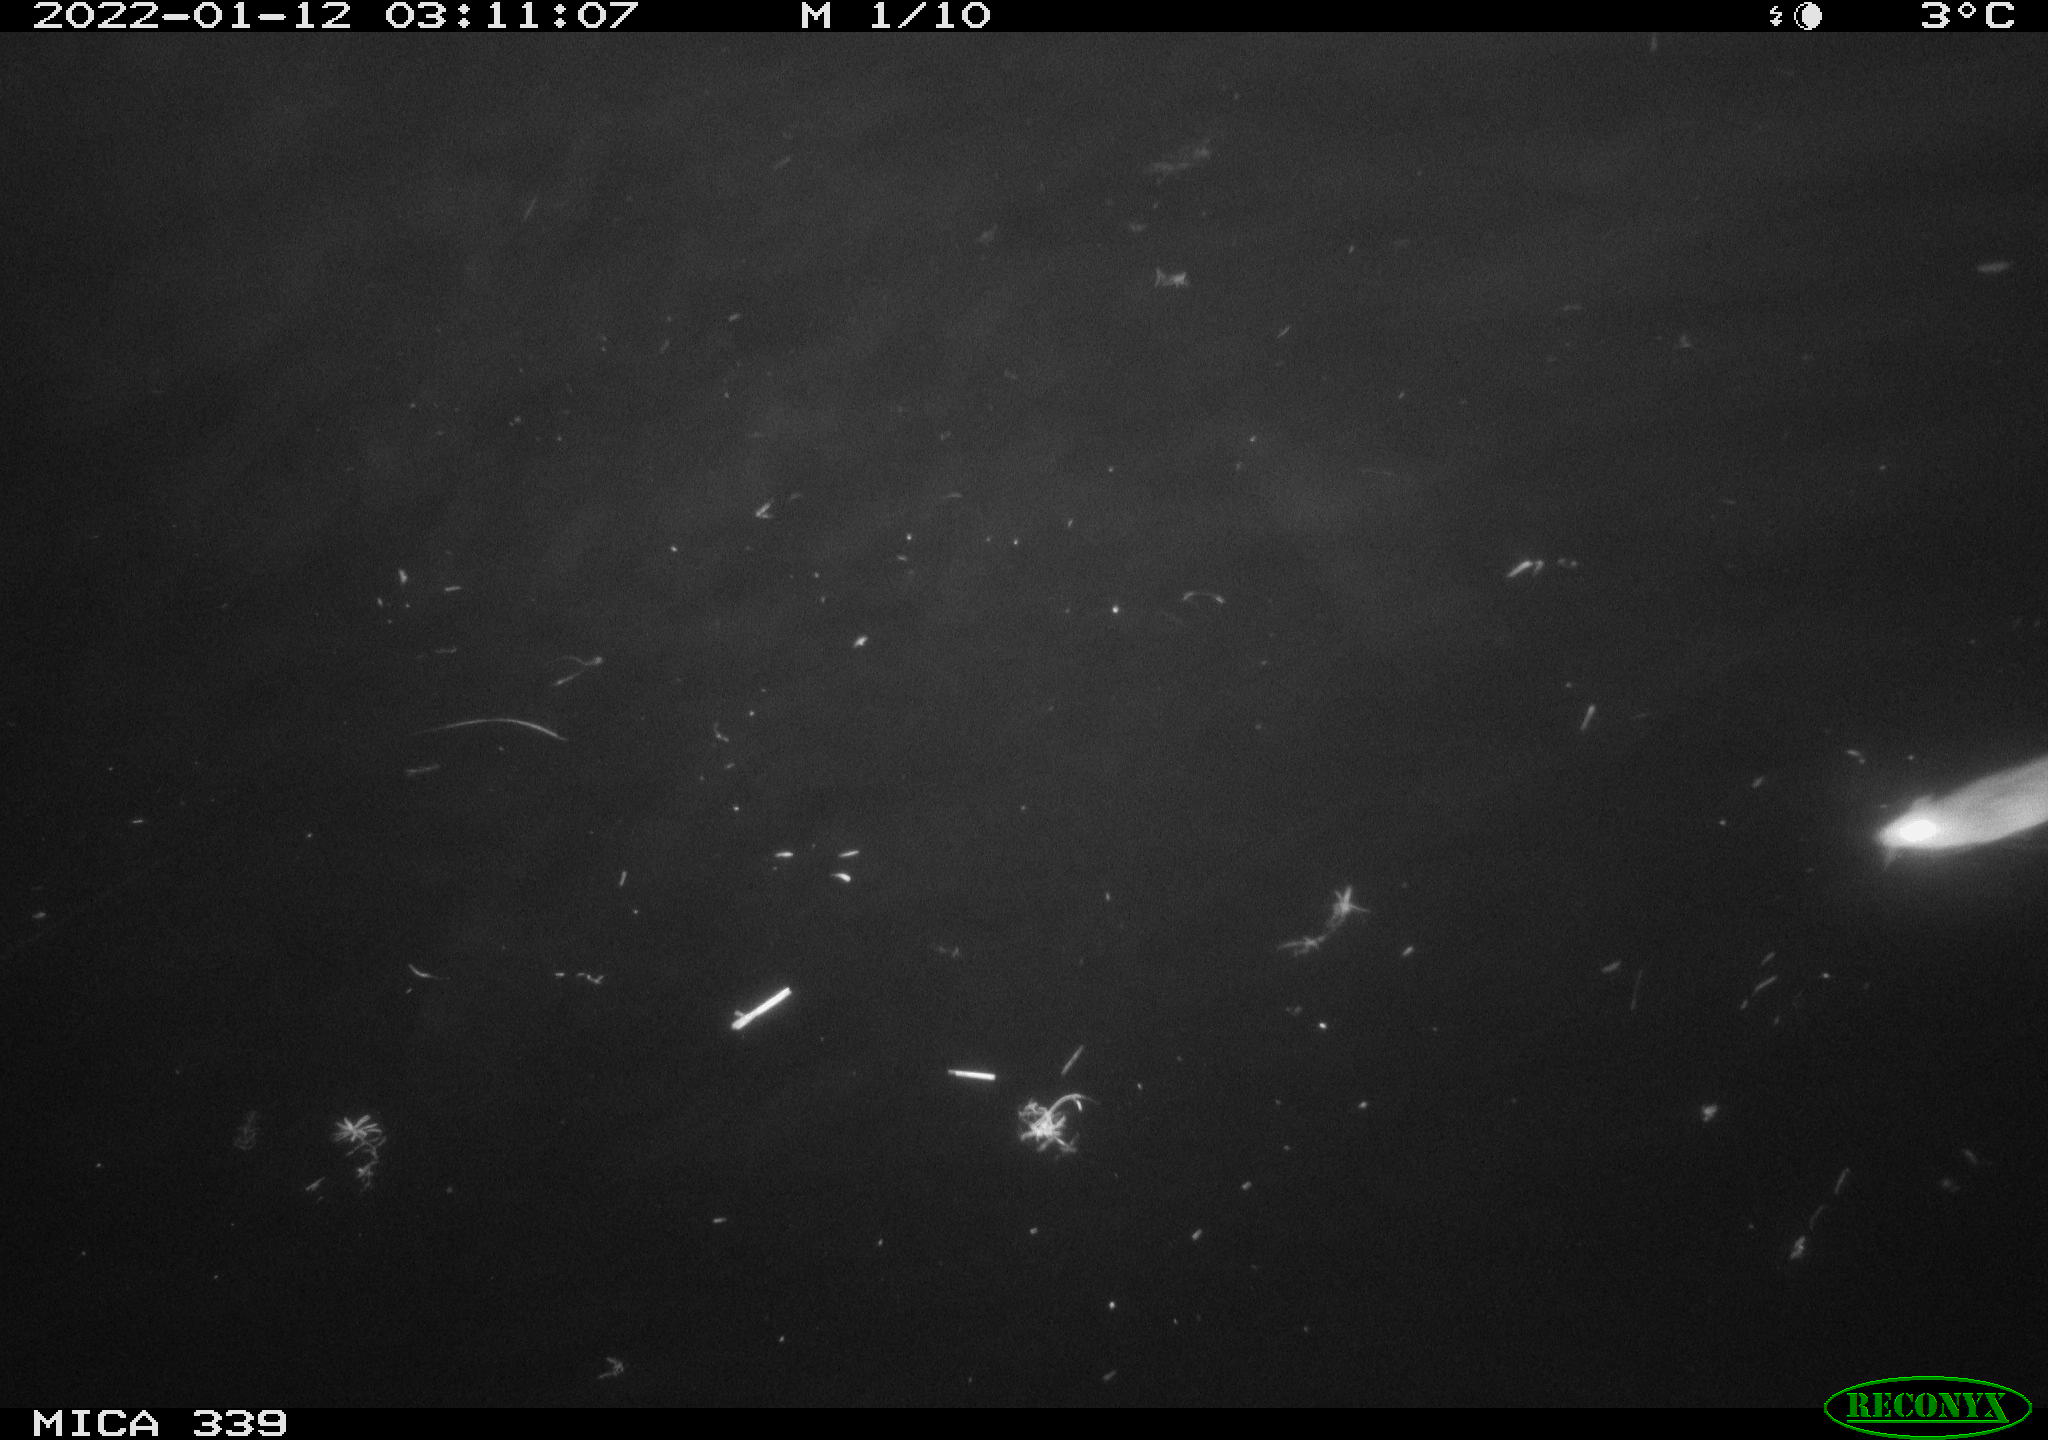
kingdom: Animalia
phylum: Chordata
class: Mammalia
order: Rodentia
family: Muridae
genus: Rattus
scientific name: Rattus norvegicus
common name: Brown rat
